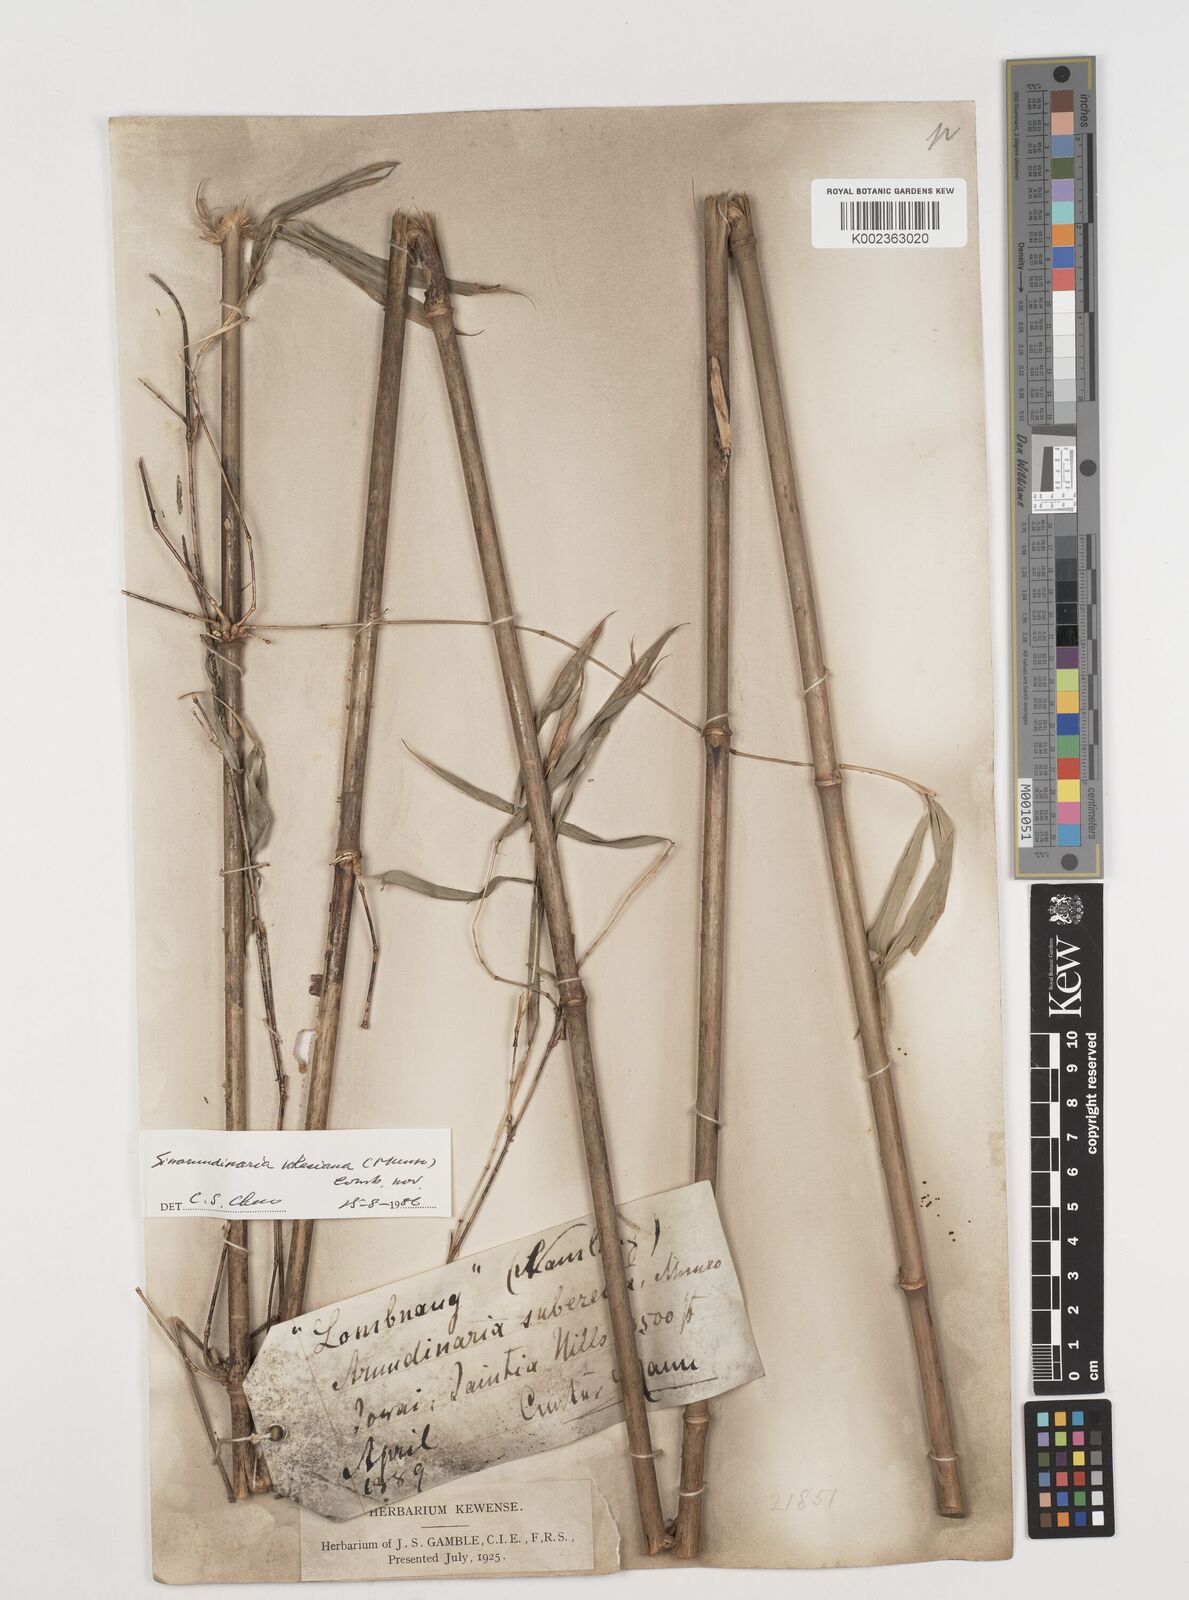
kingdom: Plantae
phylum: Tracheophyta
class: Liliopsida
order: Poales
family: Poaceae
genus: Drepanostachyum
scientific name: Drepanostachyum khasianum
